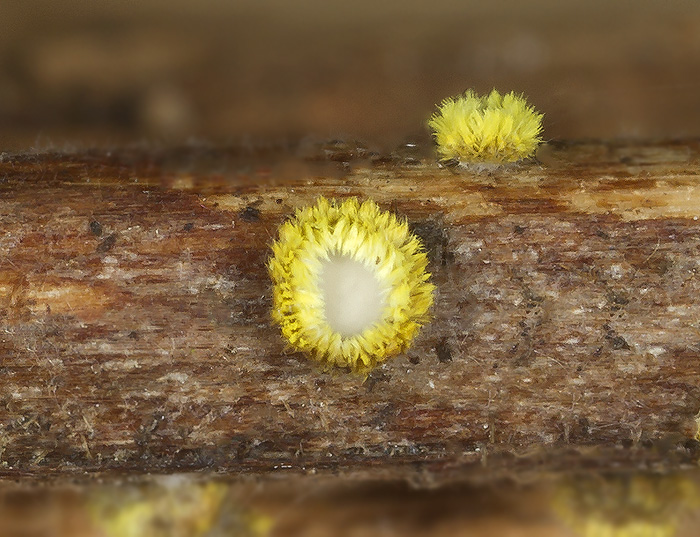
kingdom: Fungi
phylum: Ascomycota
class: Leotiomycetes
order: Helotiales
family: Lachnaceae
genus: Lachnum
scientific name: Lachnum mollissimum
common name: smuk frynseskive
